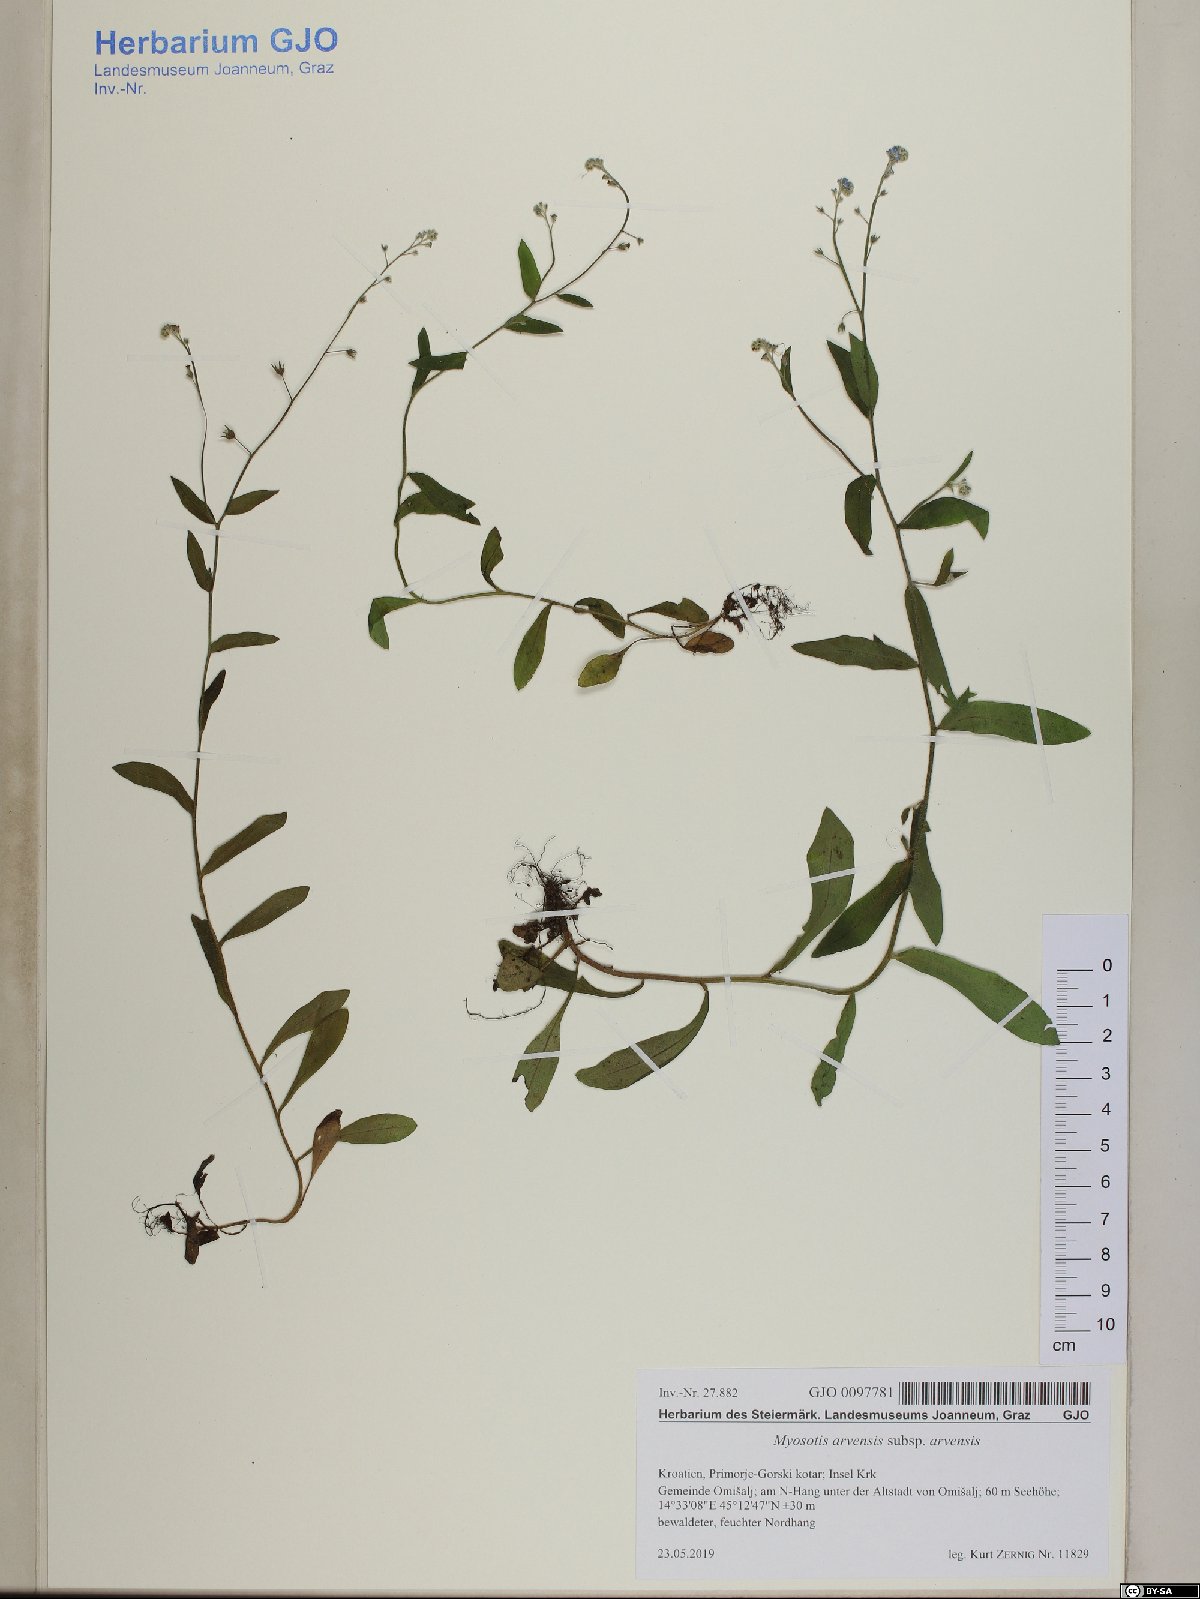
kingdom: Plantae
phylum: Tracheophyta
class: Magnoliopsida
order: Boraginales
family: Boraginaceae
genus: Myosotis
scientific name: Myosotis arvensis
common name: Field forget-me-not
